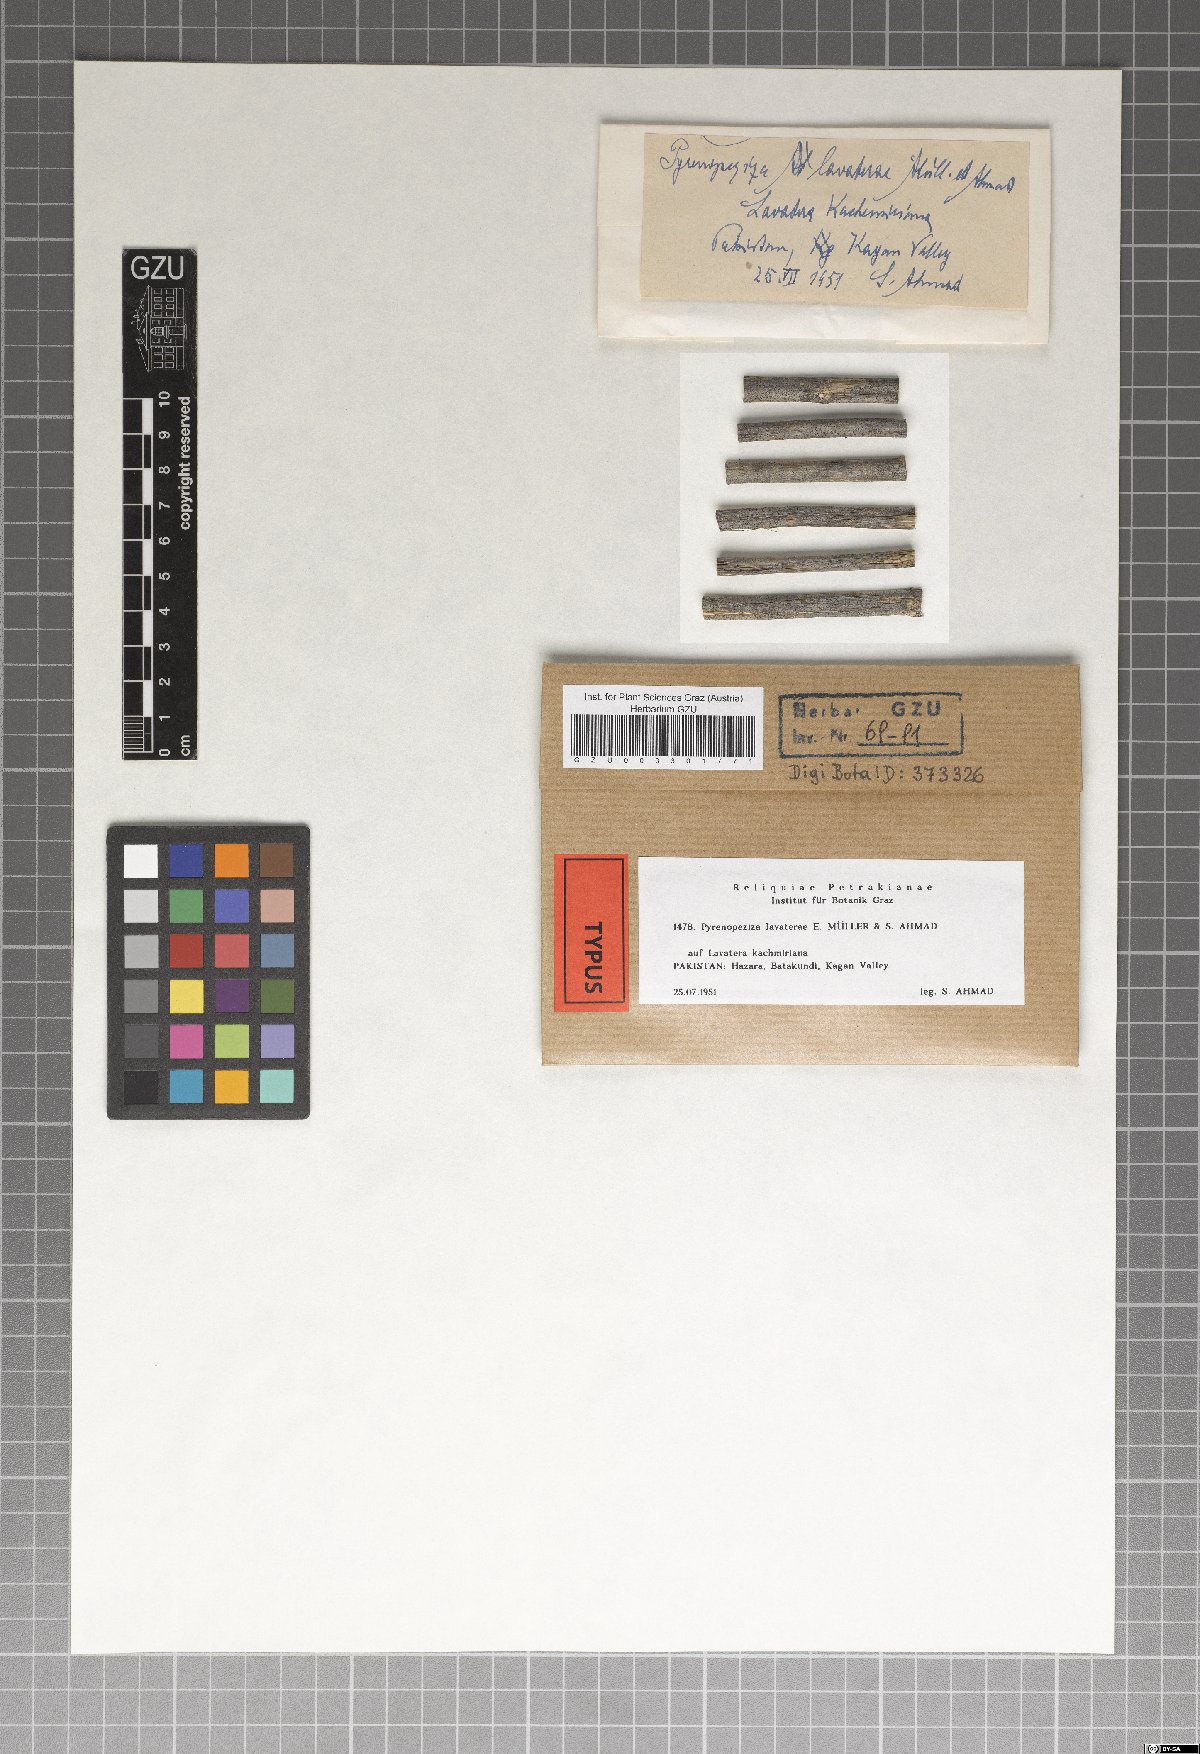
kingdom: Fungi
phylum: Ascomycota
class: Leotiomycetes
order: Helotiales
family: Ploettnerulaceae
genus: Pyrenopeziza
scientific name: Pyrenopeziza lavaterae
